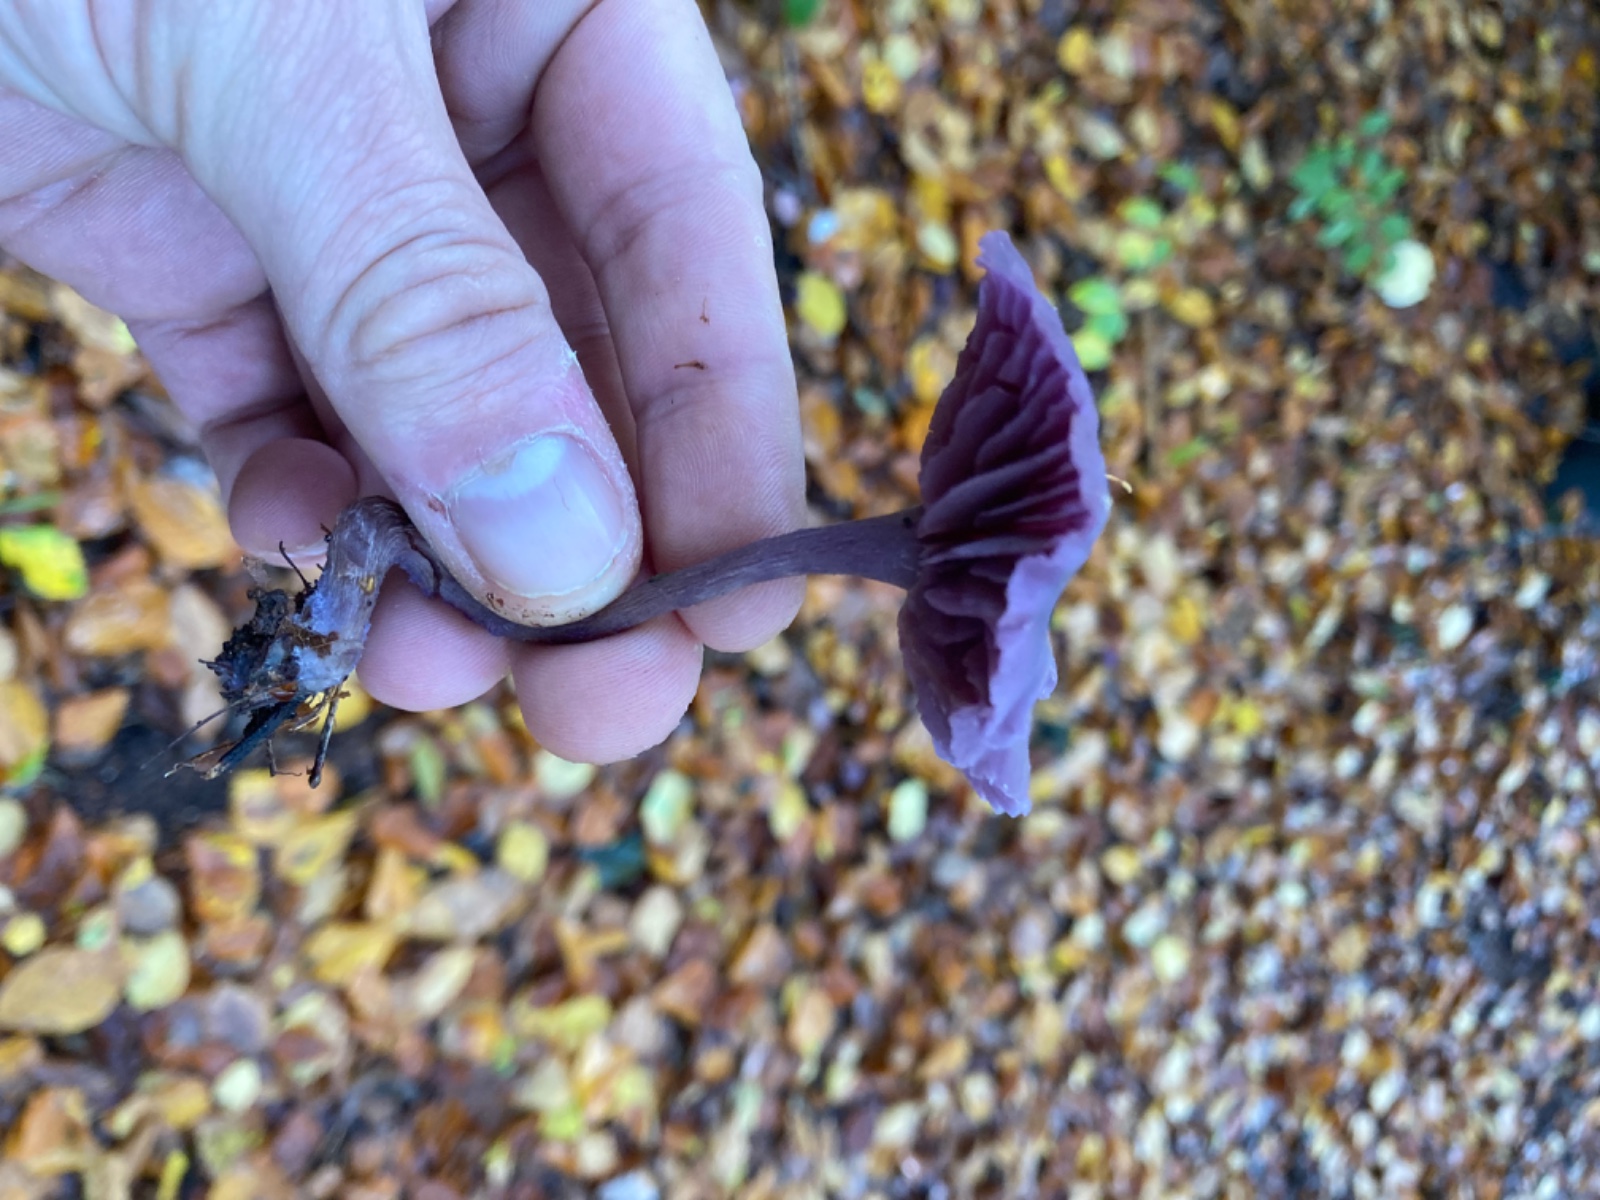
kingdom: Fungi
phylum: Basidiomycota
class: Agaricomycetes
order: Agaricales
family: Hydnangiaceae
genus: Laccaria
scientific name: Laccaria amethystina
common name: violet ametysthat
